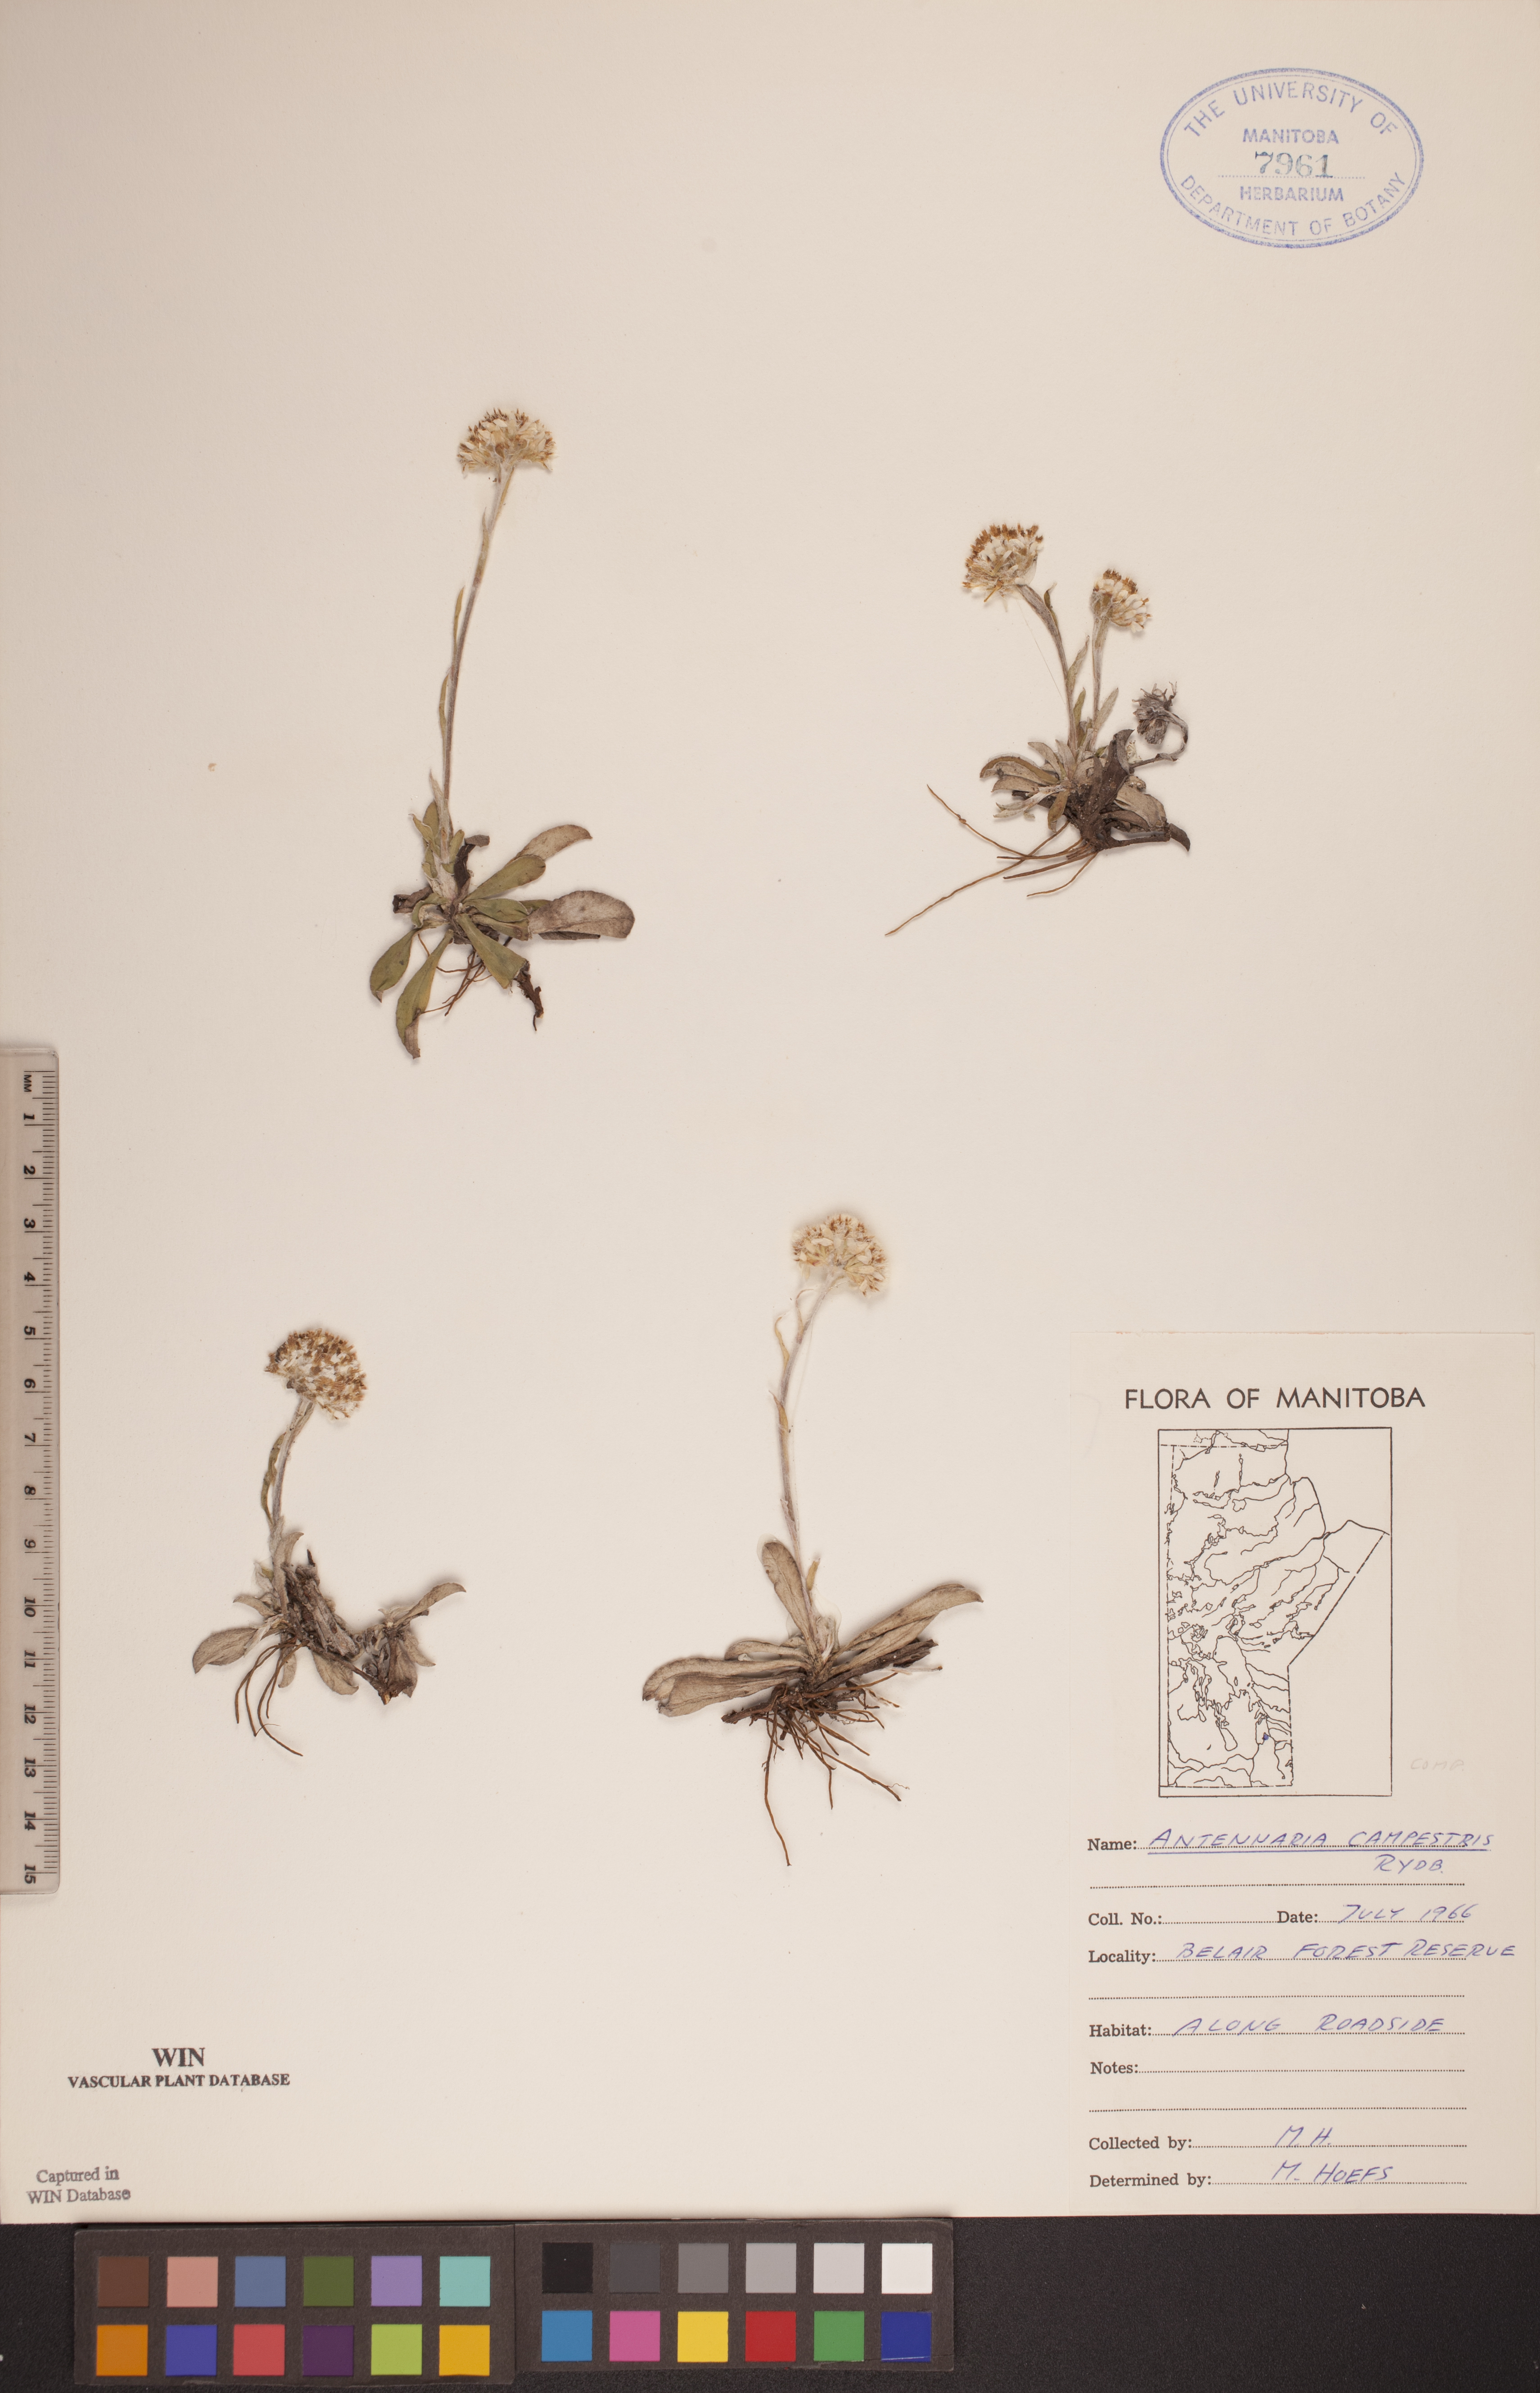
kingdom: Plantae
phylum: Tracheophyta
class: Magnoliopsida
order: Asterales
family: Asteraceae
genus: Antennaria
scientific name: Antennaria neglecta
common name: Field pussytoes
